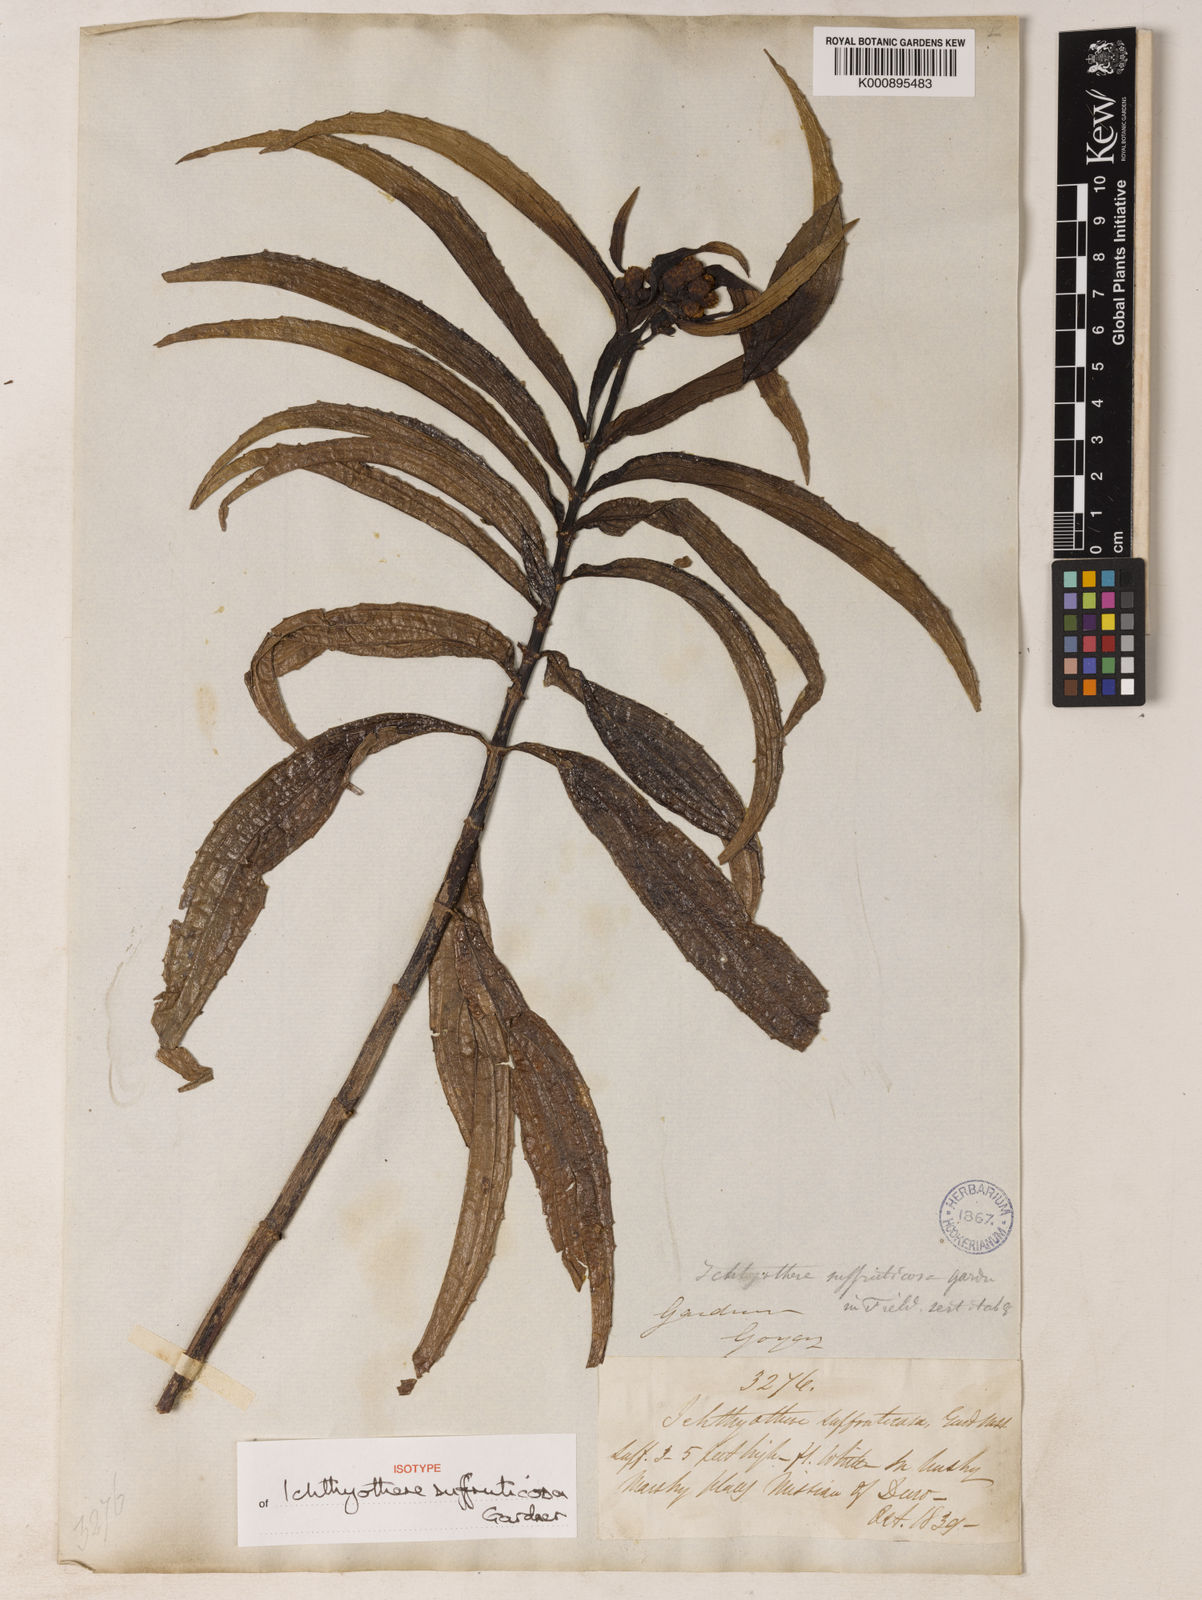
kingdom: Plantae
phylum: Tracheophyta
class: Magnoliopsida
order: Asterales
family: Asteraceae
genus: Ichthyothere
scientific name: Ichthyothere suffruticosa
